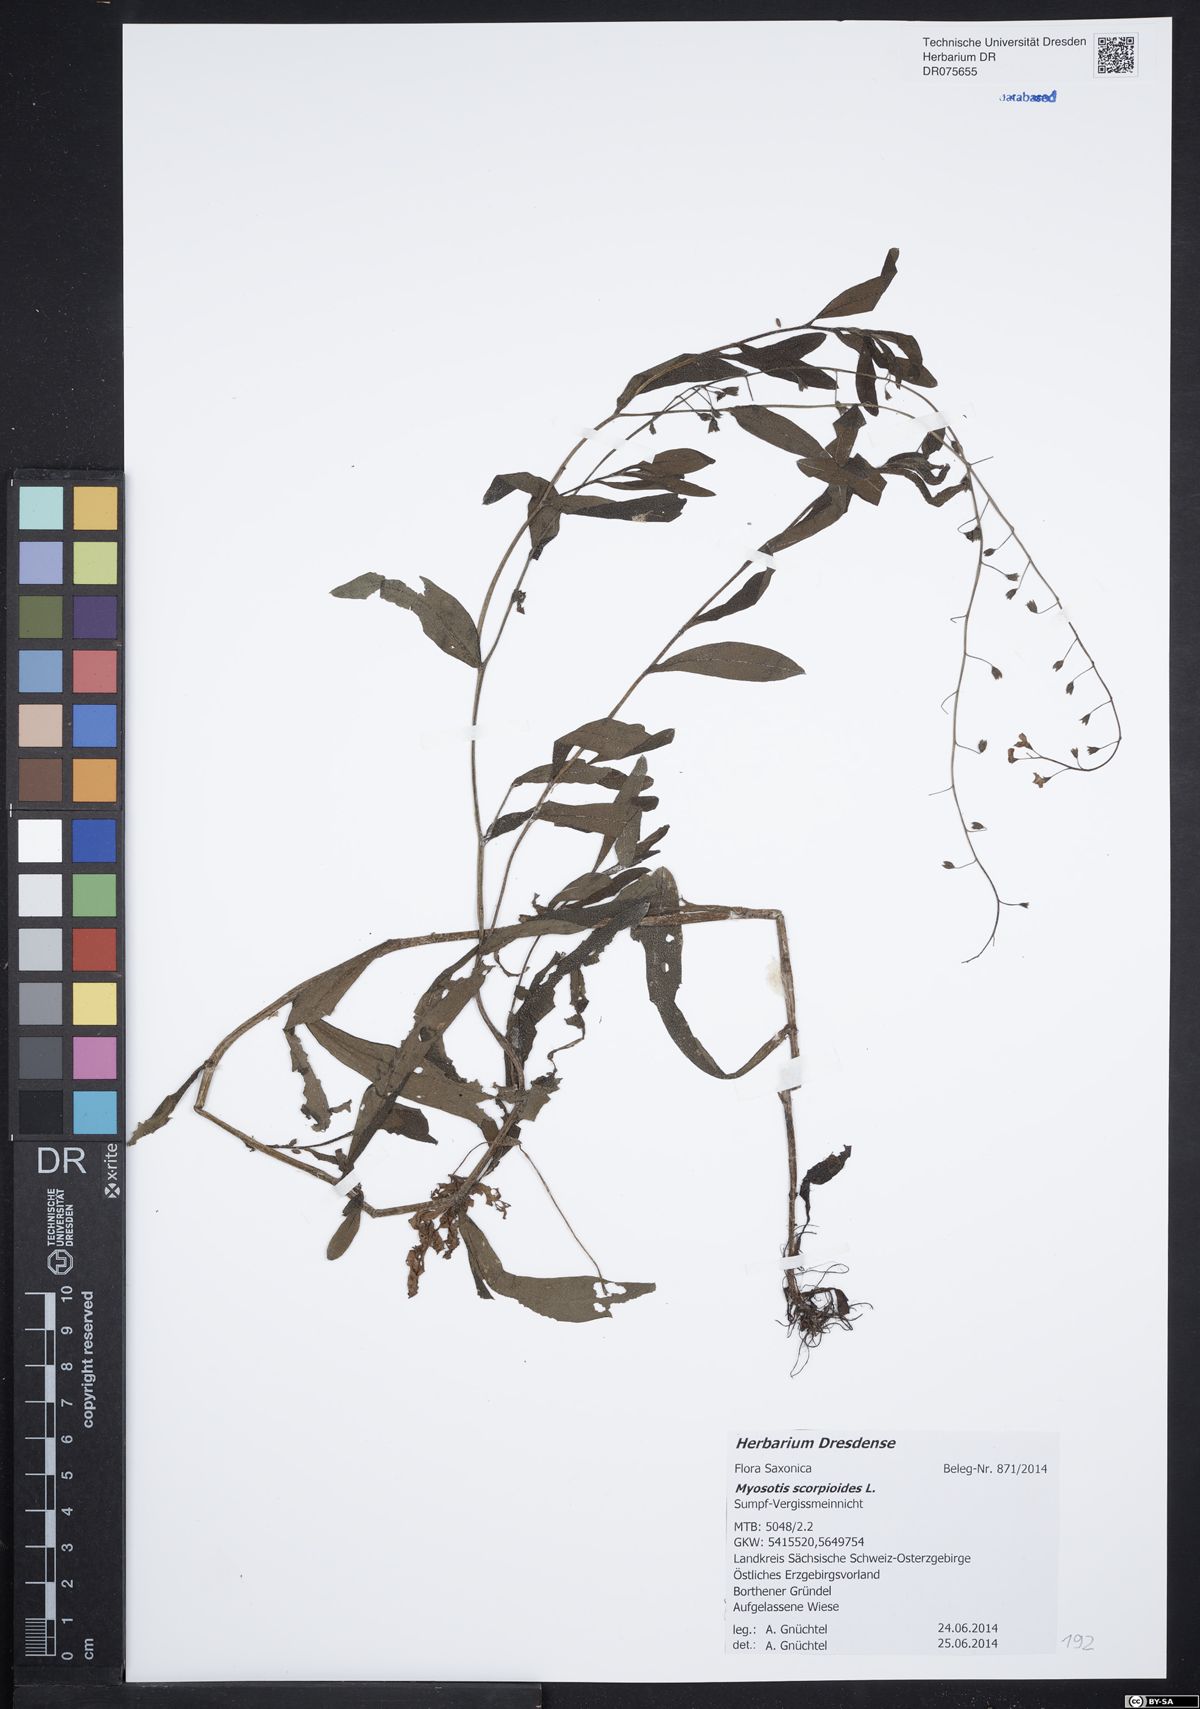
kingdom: Plantae
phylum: Tracheophyta
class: Magnoliopsida
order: Boraginales
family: Boraginaceae
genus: Myosotis
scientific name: Myosotis scorpioides
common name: Water forget-me-not
